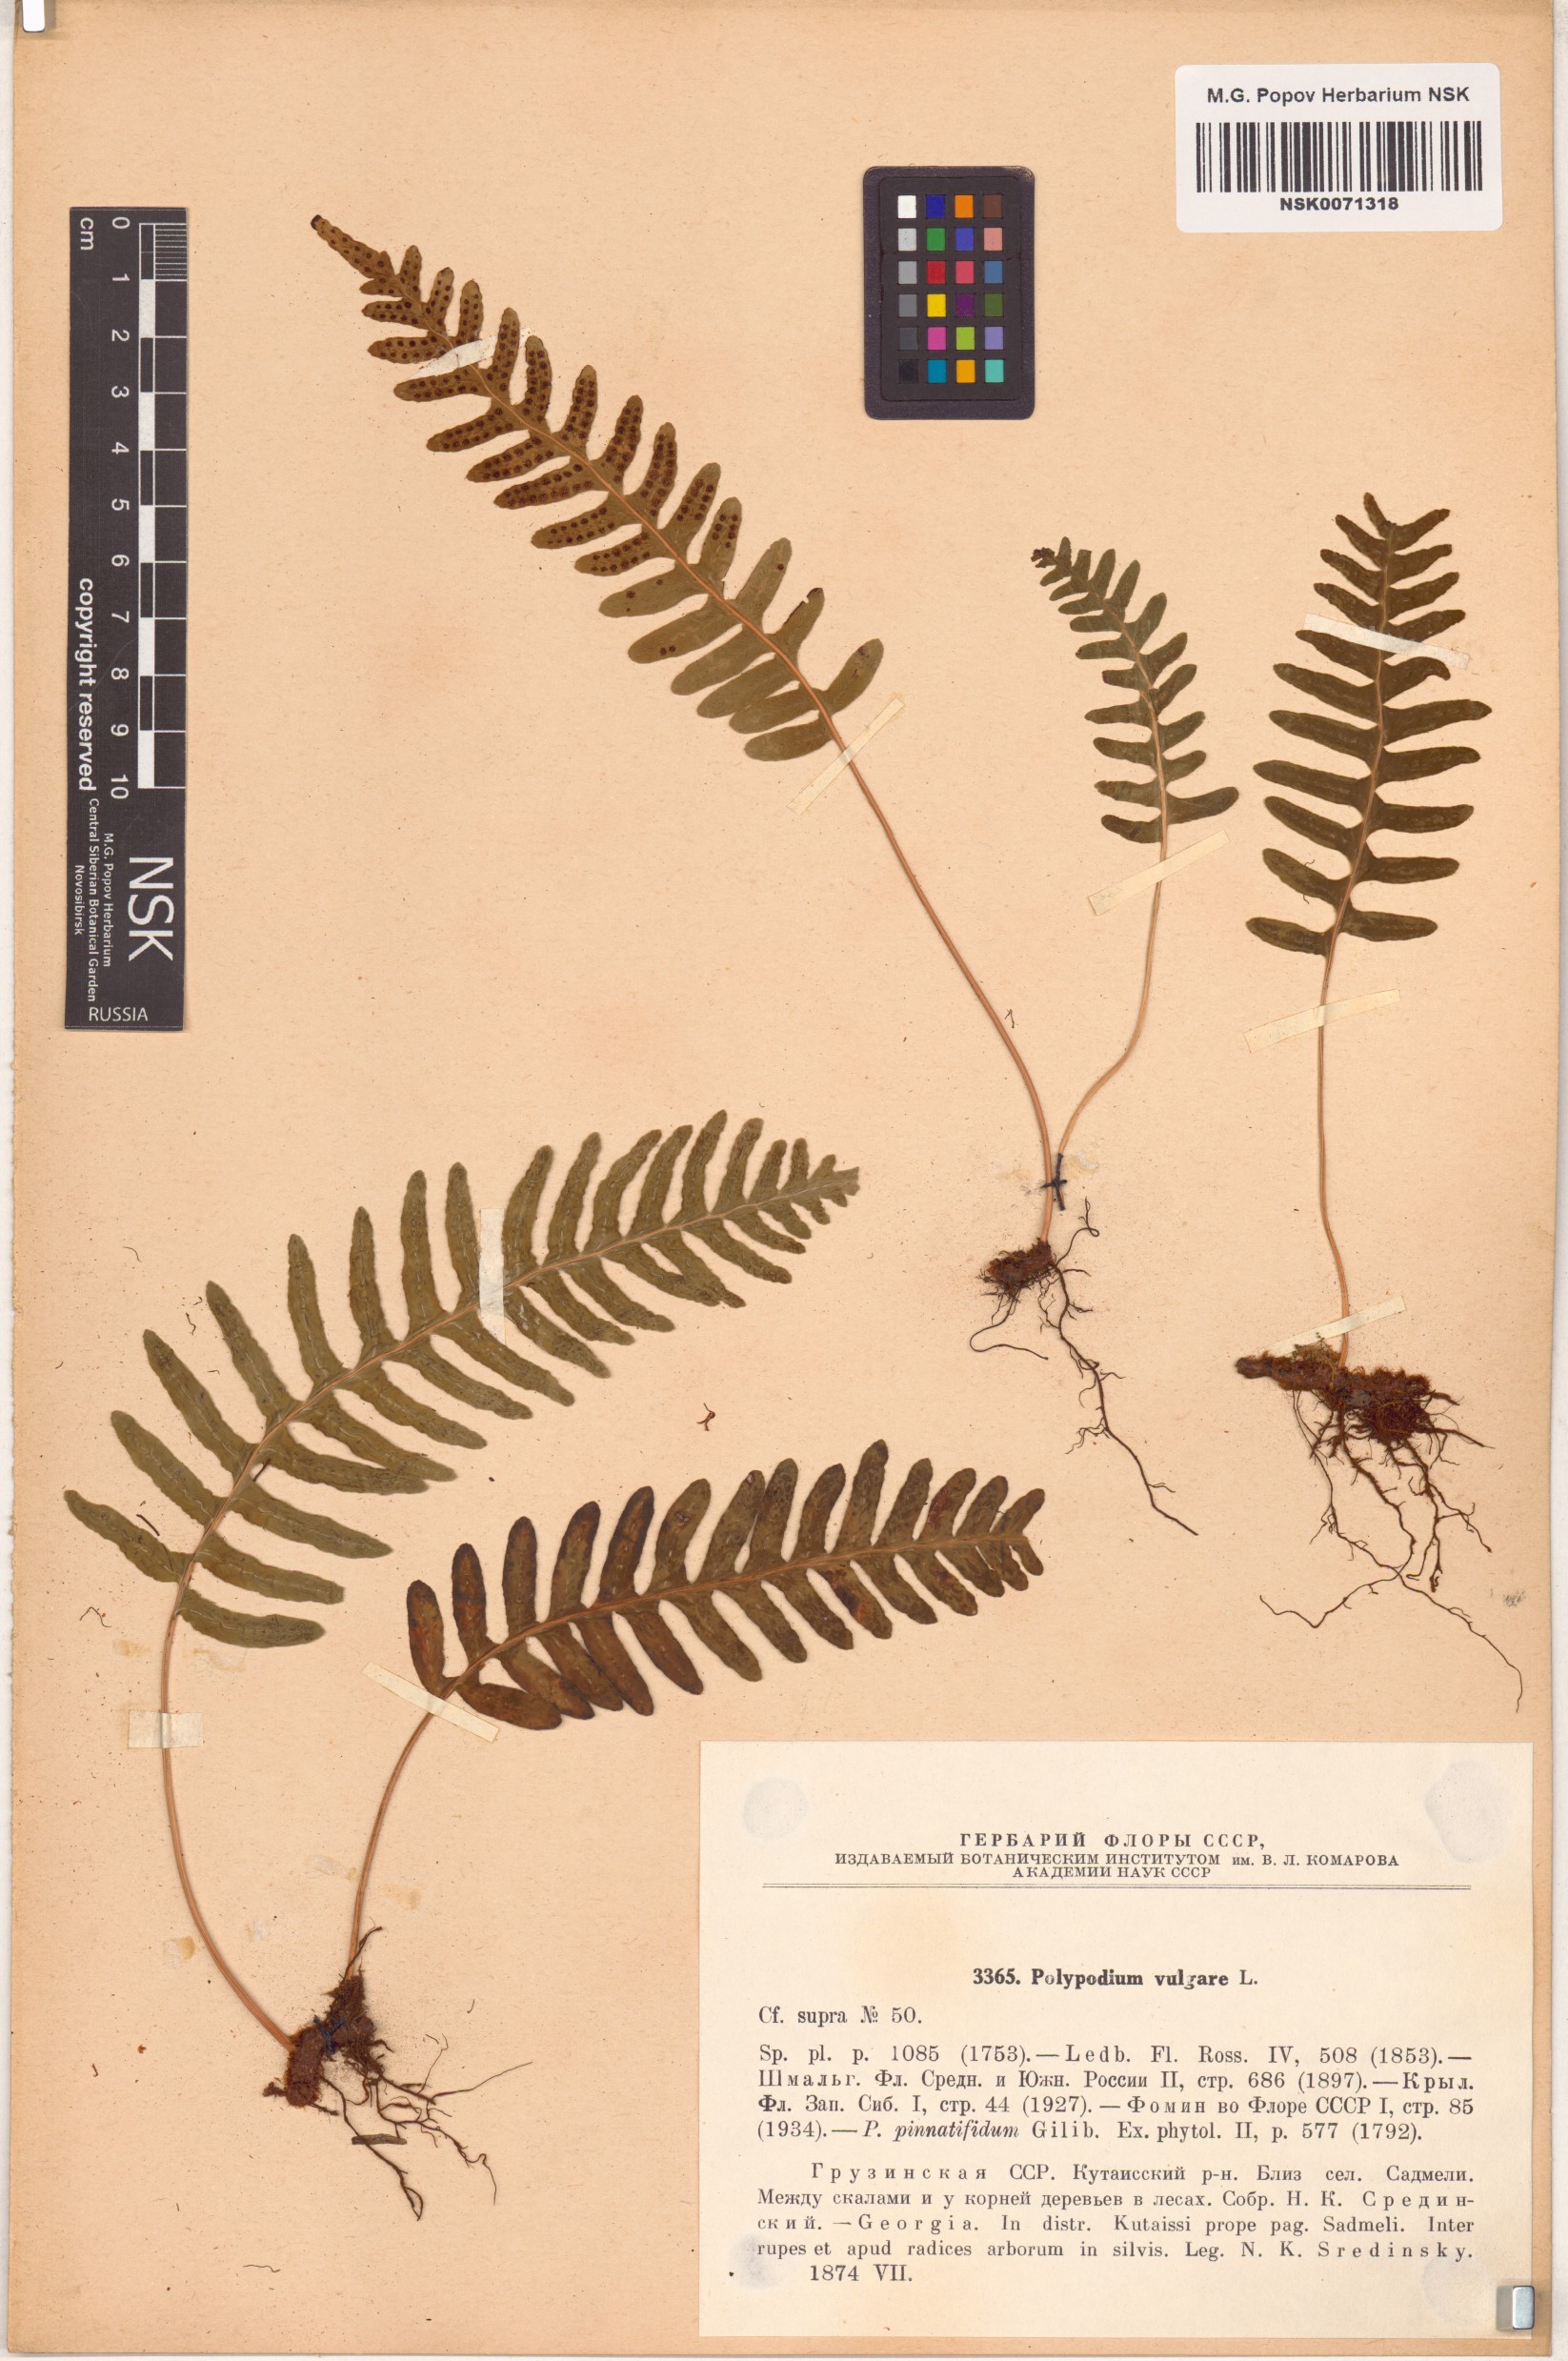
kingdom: Plantae
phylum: Tracheophyta
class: Polypodiopsida
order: Polypodiales
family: Polypodiaceae
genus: Polypodium
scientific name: Polypodium vulgare
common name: Common polypody
